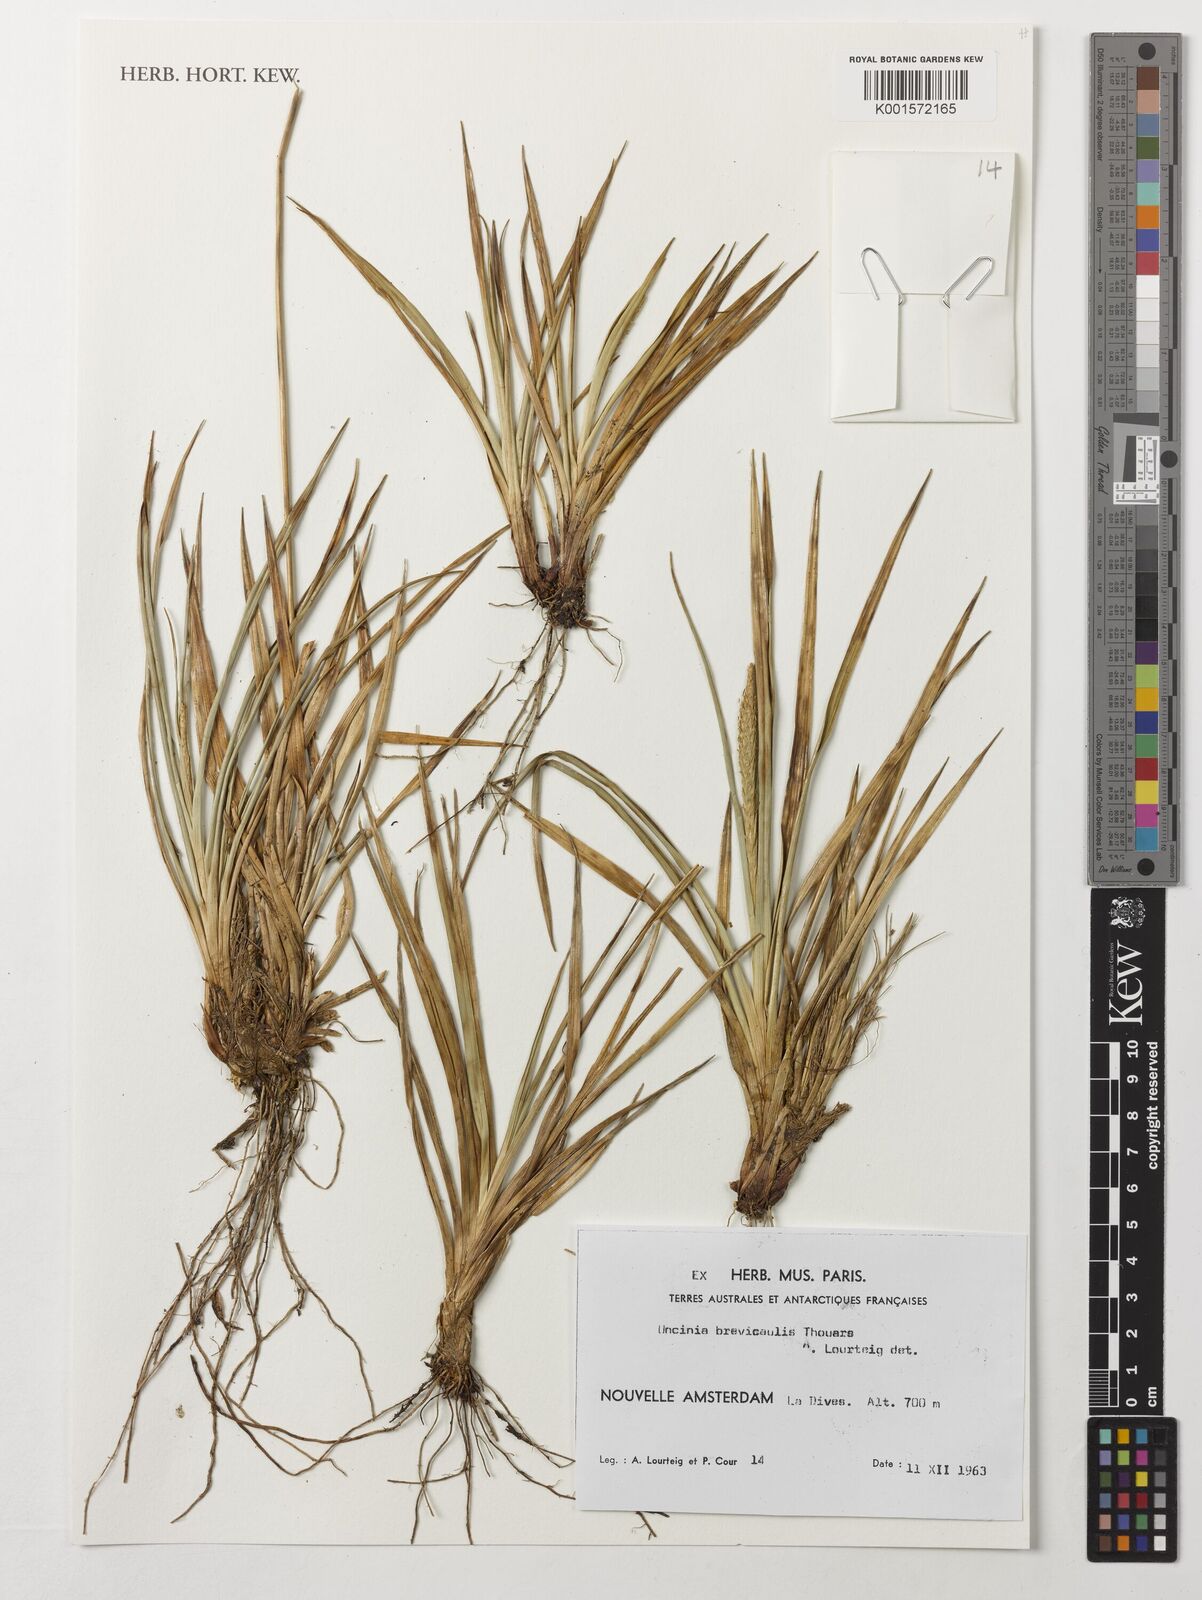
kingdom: Plantae
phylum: Tracheophyta
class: Liliopsida
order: Poales
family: Cyperaceae
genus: Carex
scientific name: Carex brevicaulis
